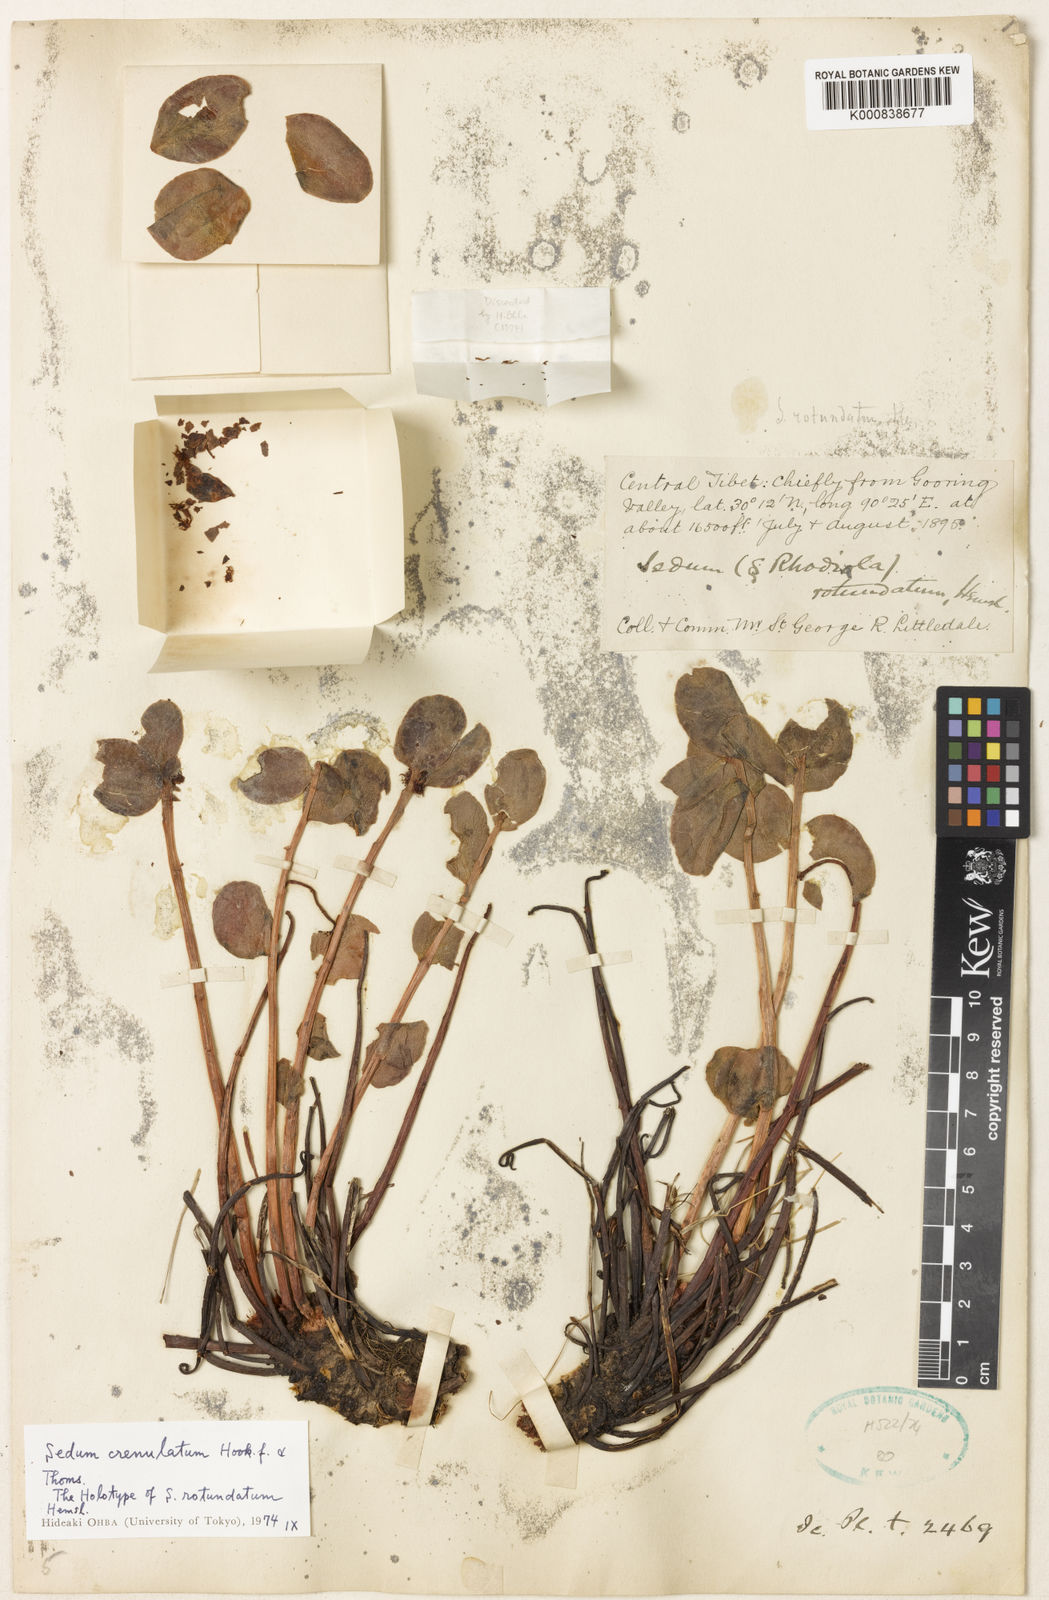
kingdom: Plantae
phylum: Tracheophyta
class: Magnoliopsida
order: Saxifragales
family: Crassulaceae
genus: Rhodiola
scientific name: Rhodiola crenulata
